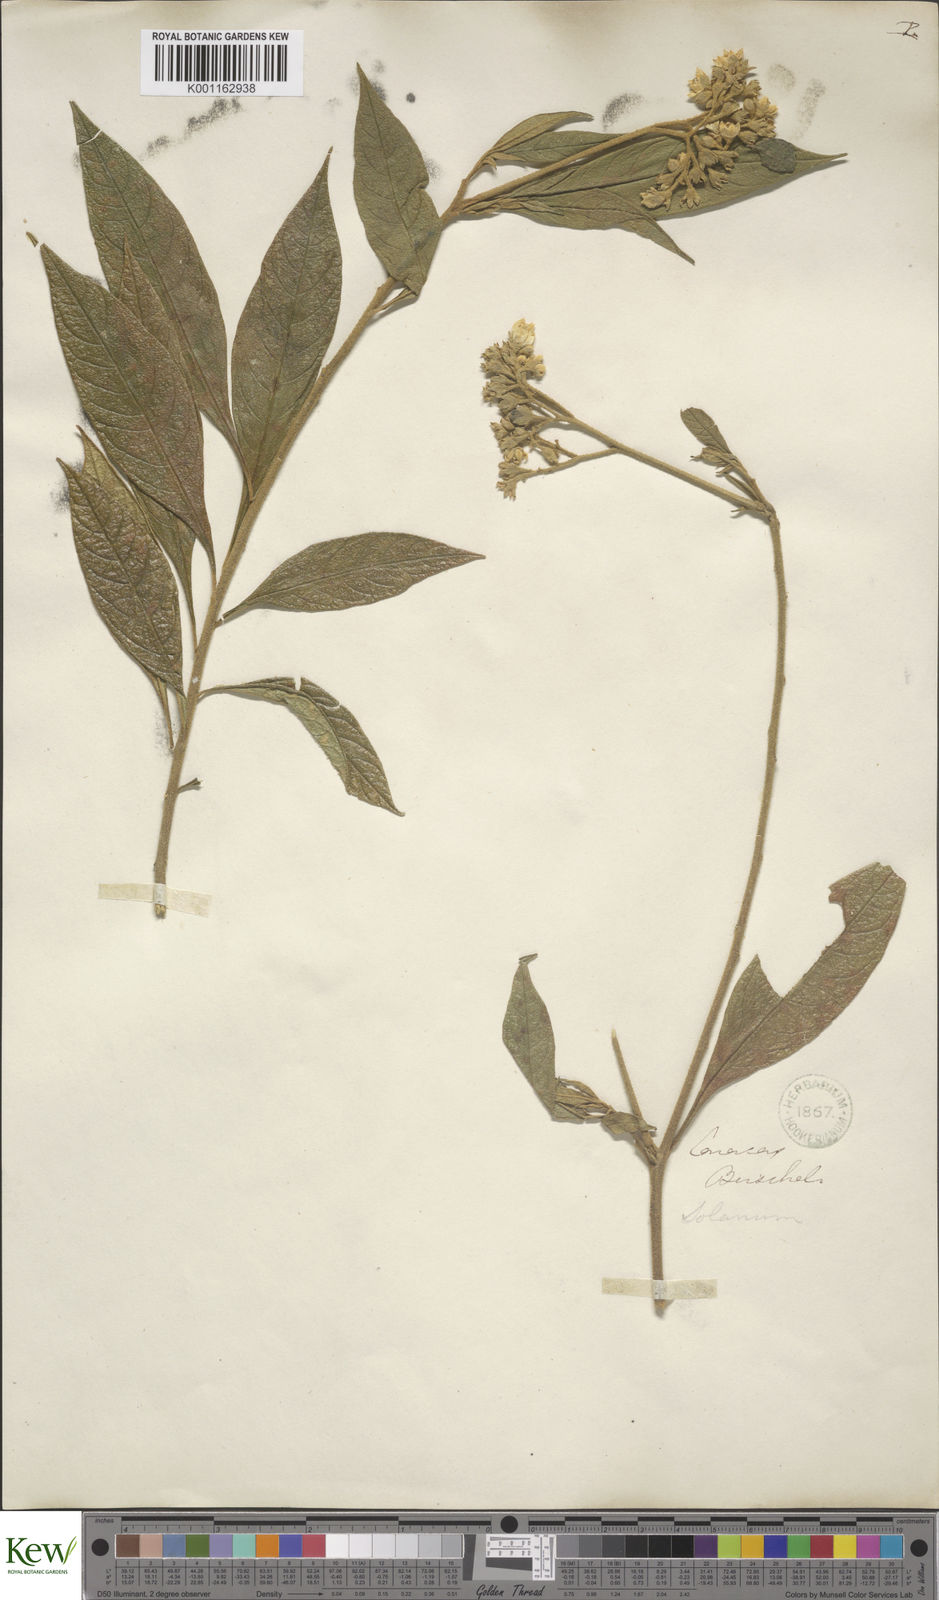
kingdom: Plantae
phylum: Tracheophyta
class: Magnoliopsida
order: Solanales
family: Solanaceae
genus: Solanum
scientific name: Solanum asperum
